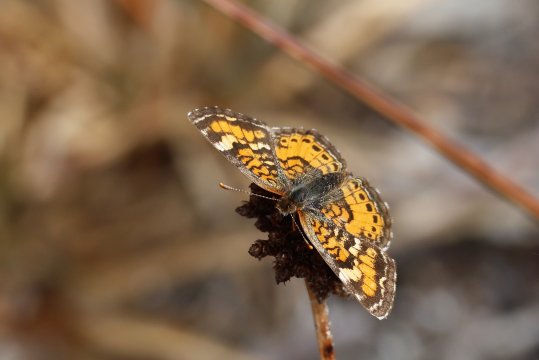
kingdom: Animalia
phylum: Arthropoda
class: Insecta
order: Lepidoptera
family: Nymphalidae
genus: Phyciodes
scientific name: Phyciodes phaon
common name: Phaon Crescent
